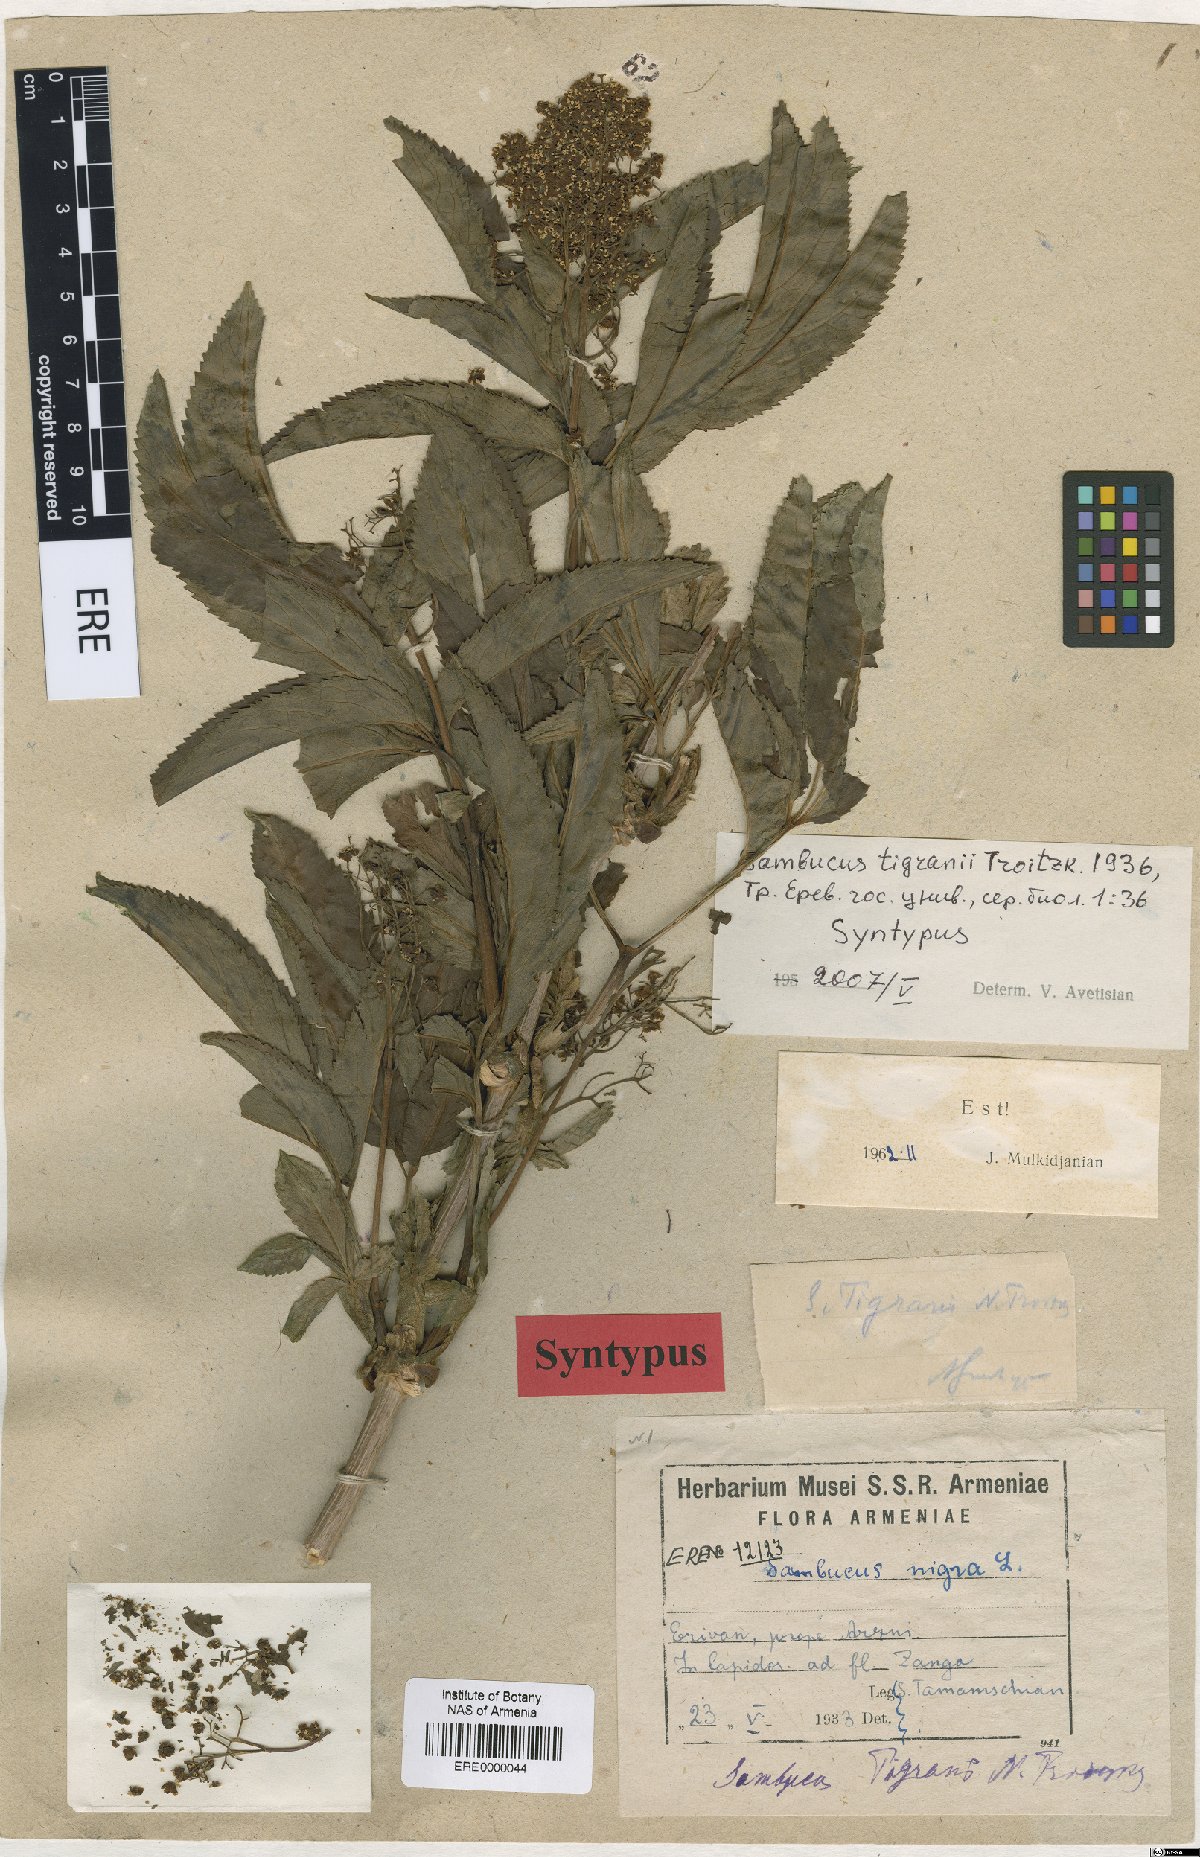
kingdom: Plantae
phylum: Tracheophyta
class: Magnoliopsida
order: Dipsacales
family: Viburnaceae
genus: Sambucus
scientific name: Sambucus tigranii
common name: Tigran's elder
